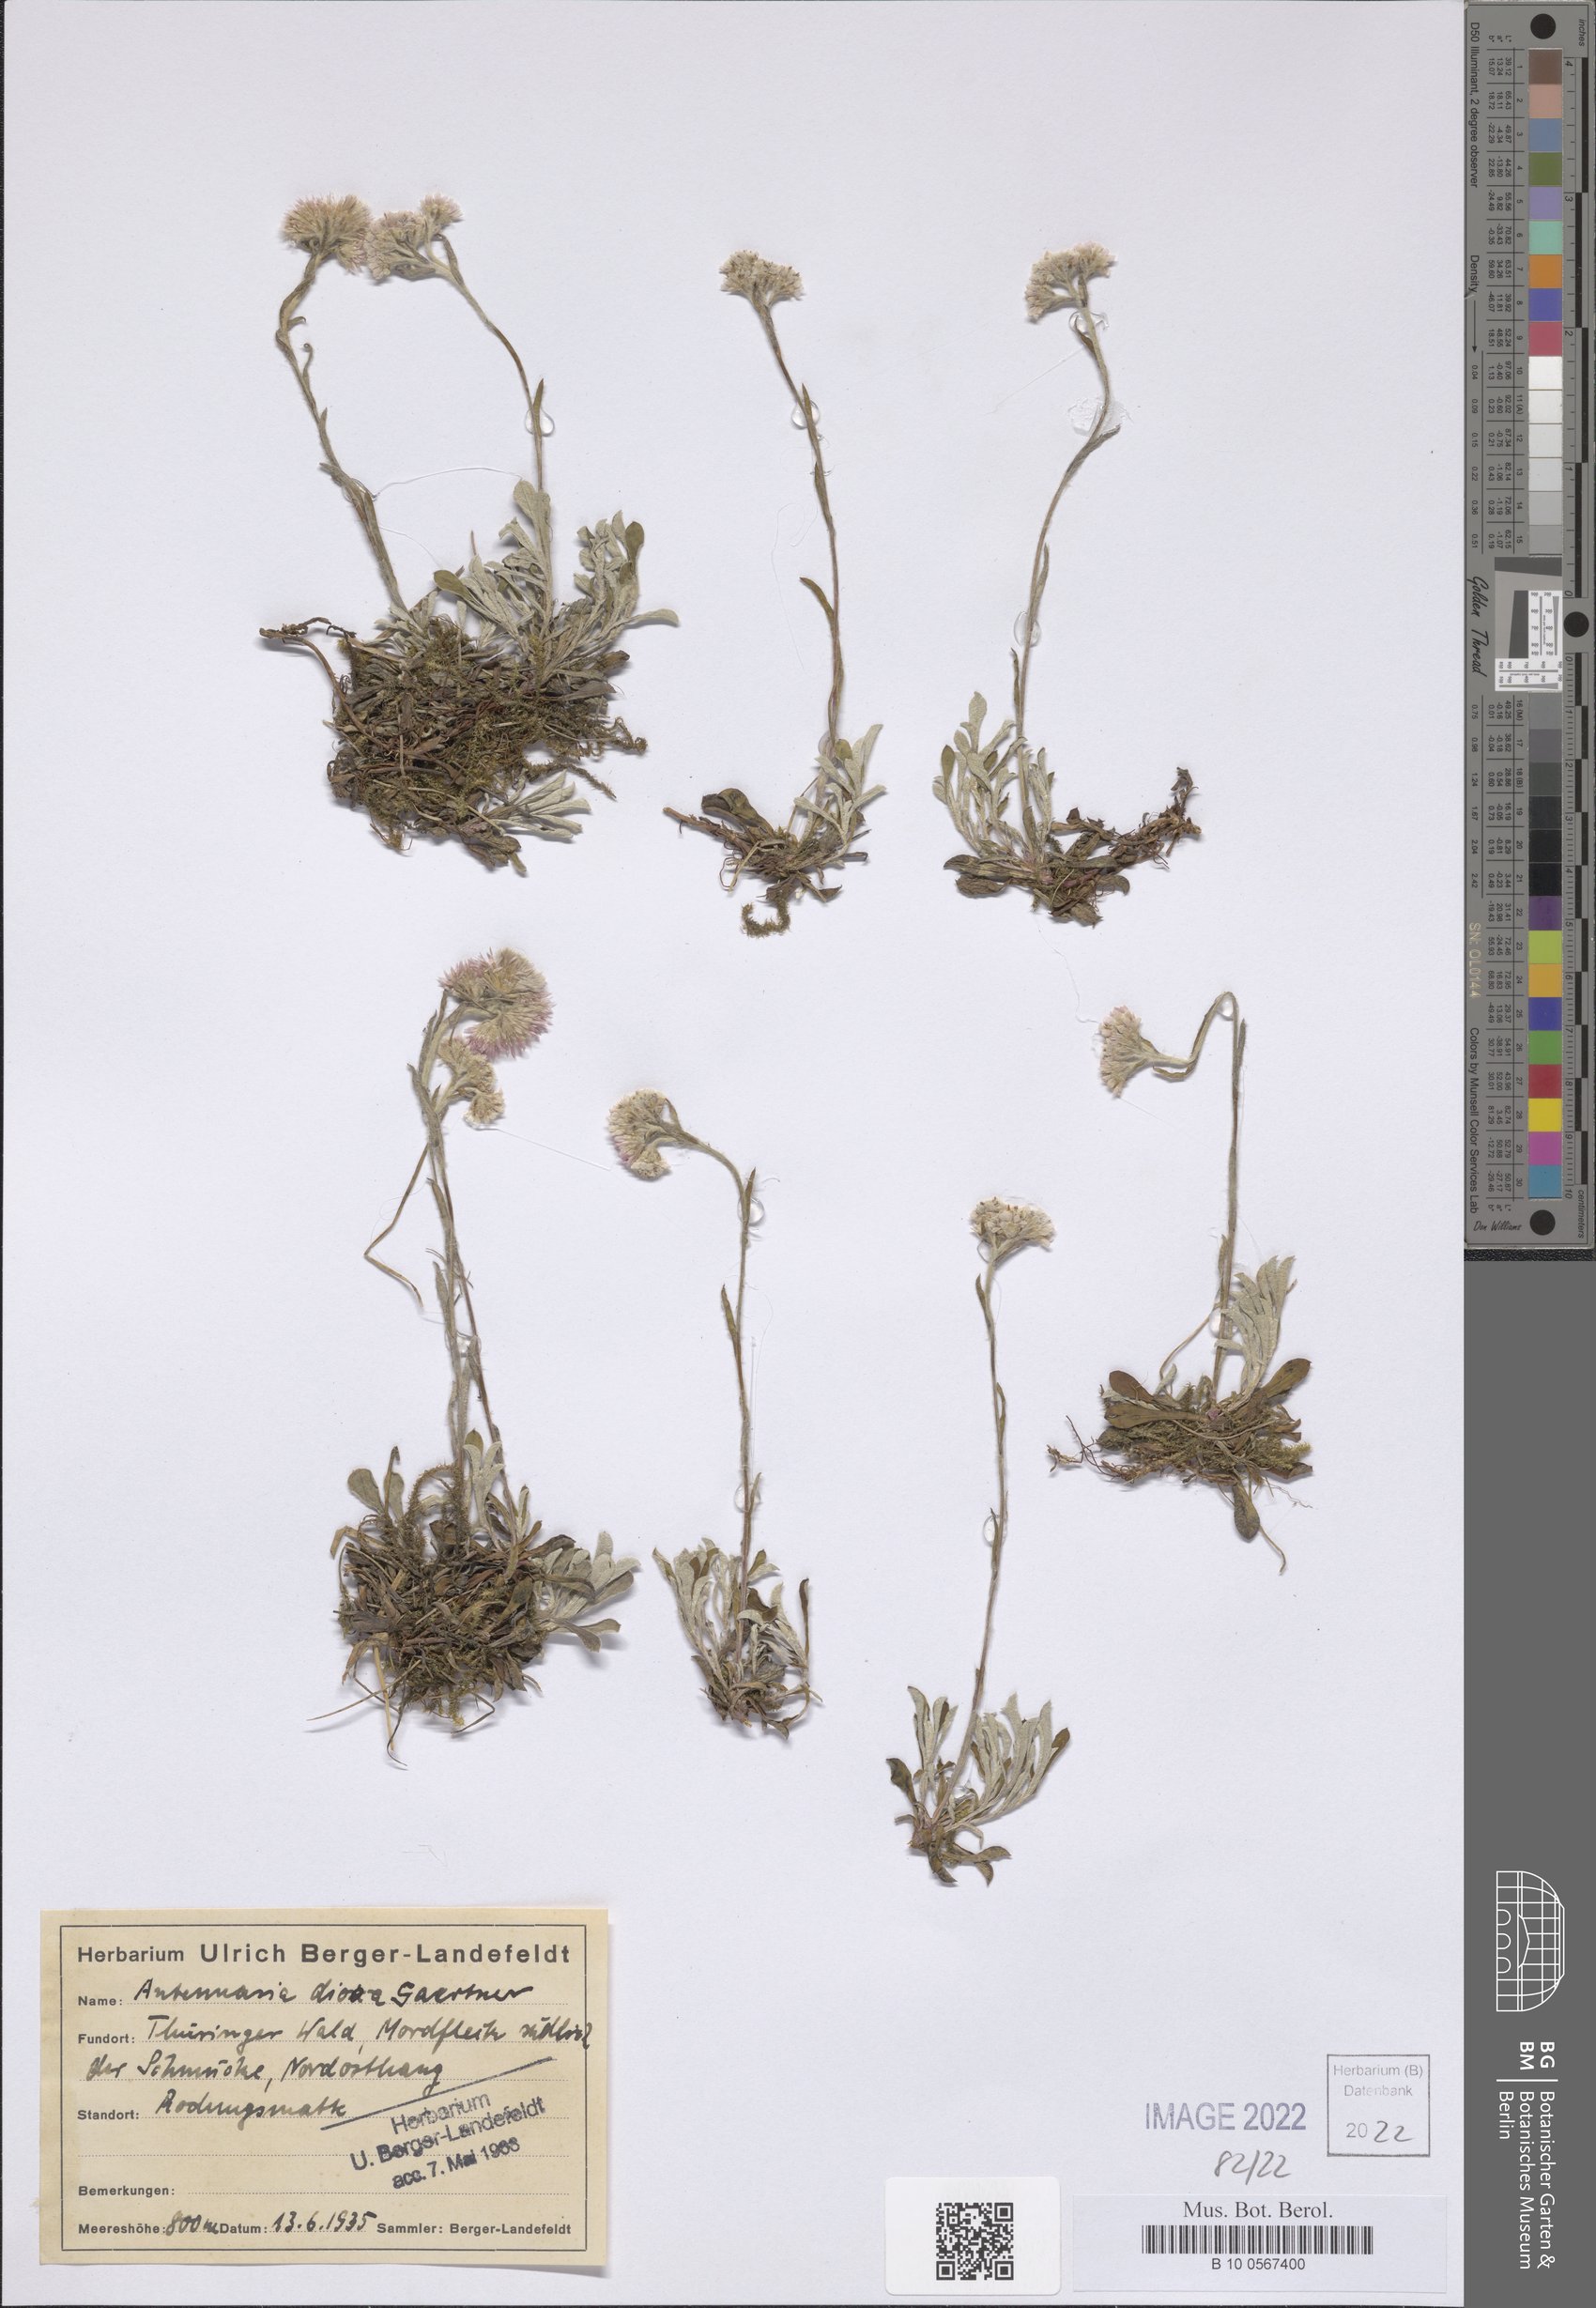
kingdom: Plantae
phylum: Tracheophyta
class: Magnoliopsida
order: Asterales
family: Asteraceae
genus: Antennaria
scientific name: Antennaria dioica
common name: Mountain everlasting
